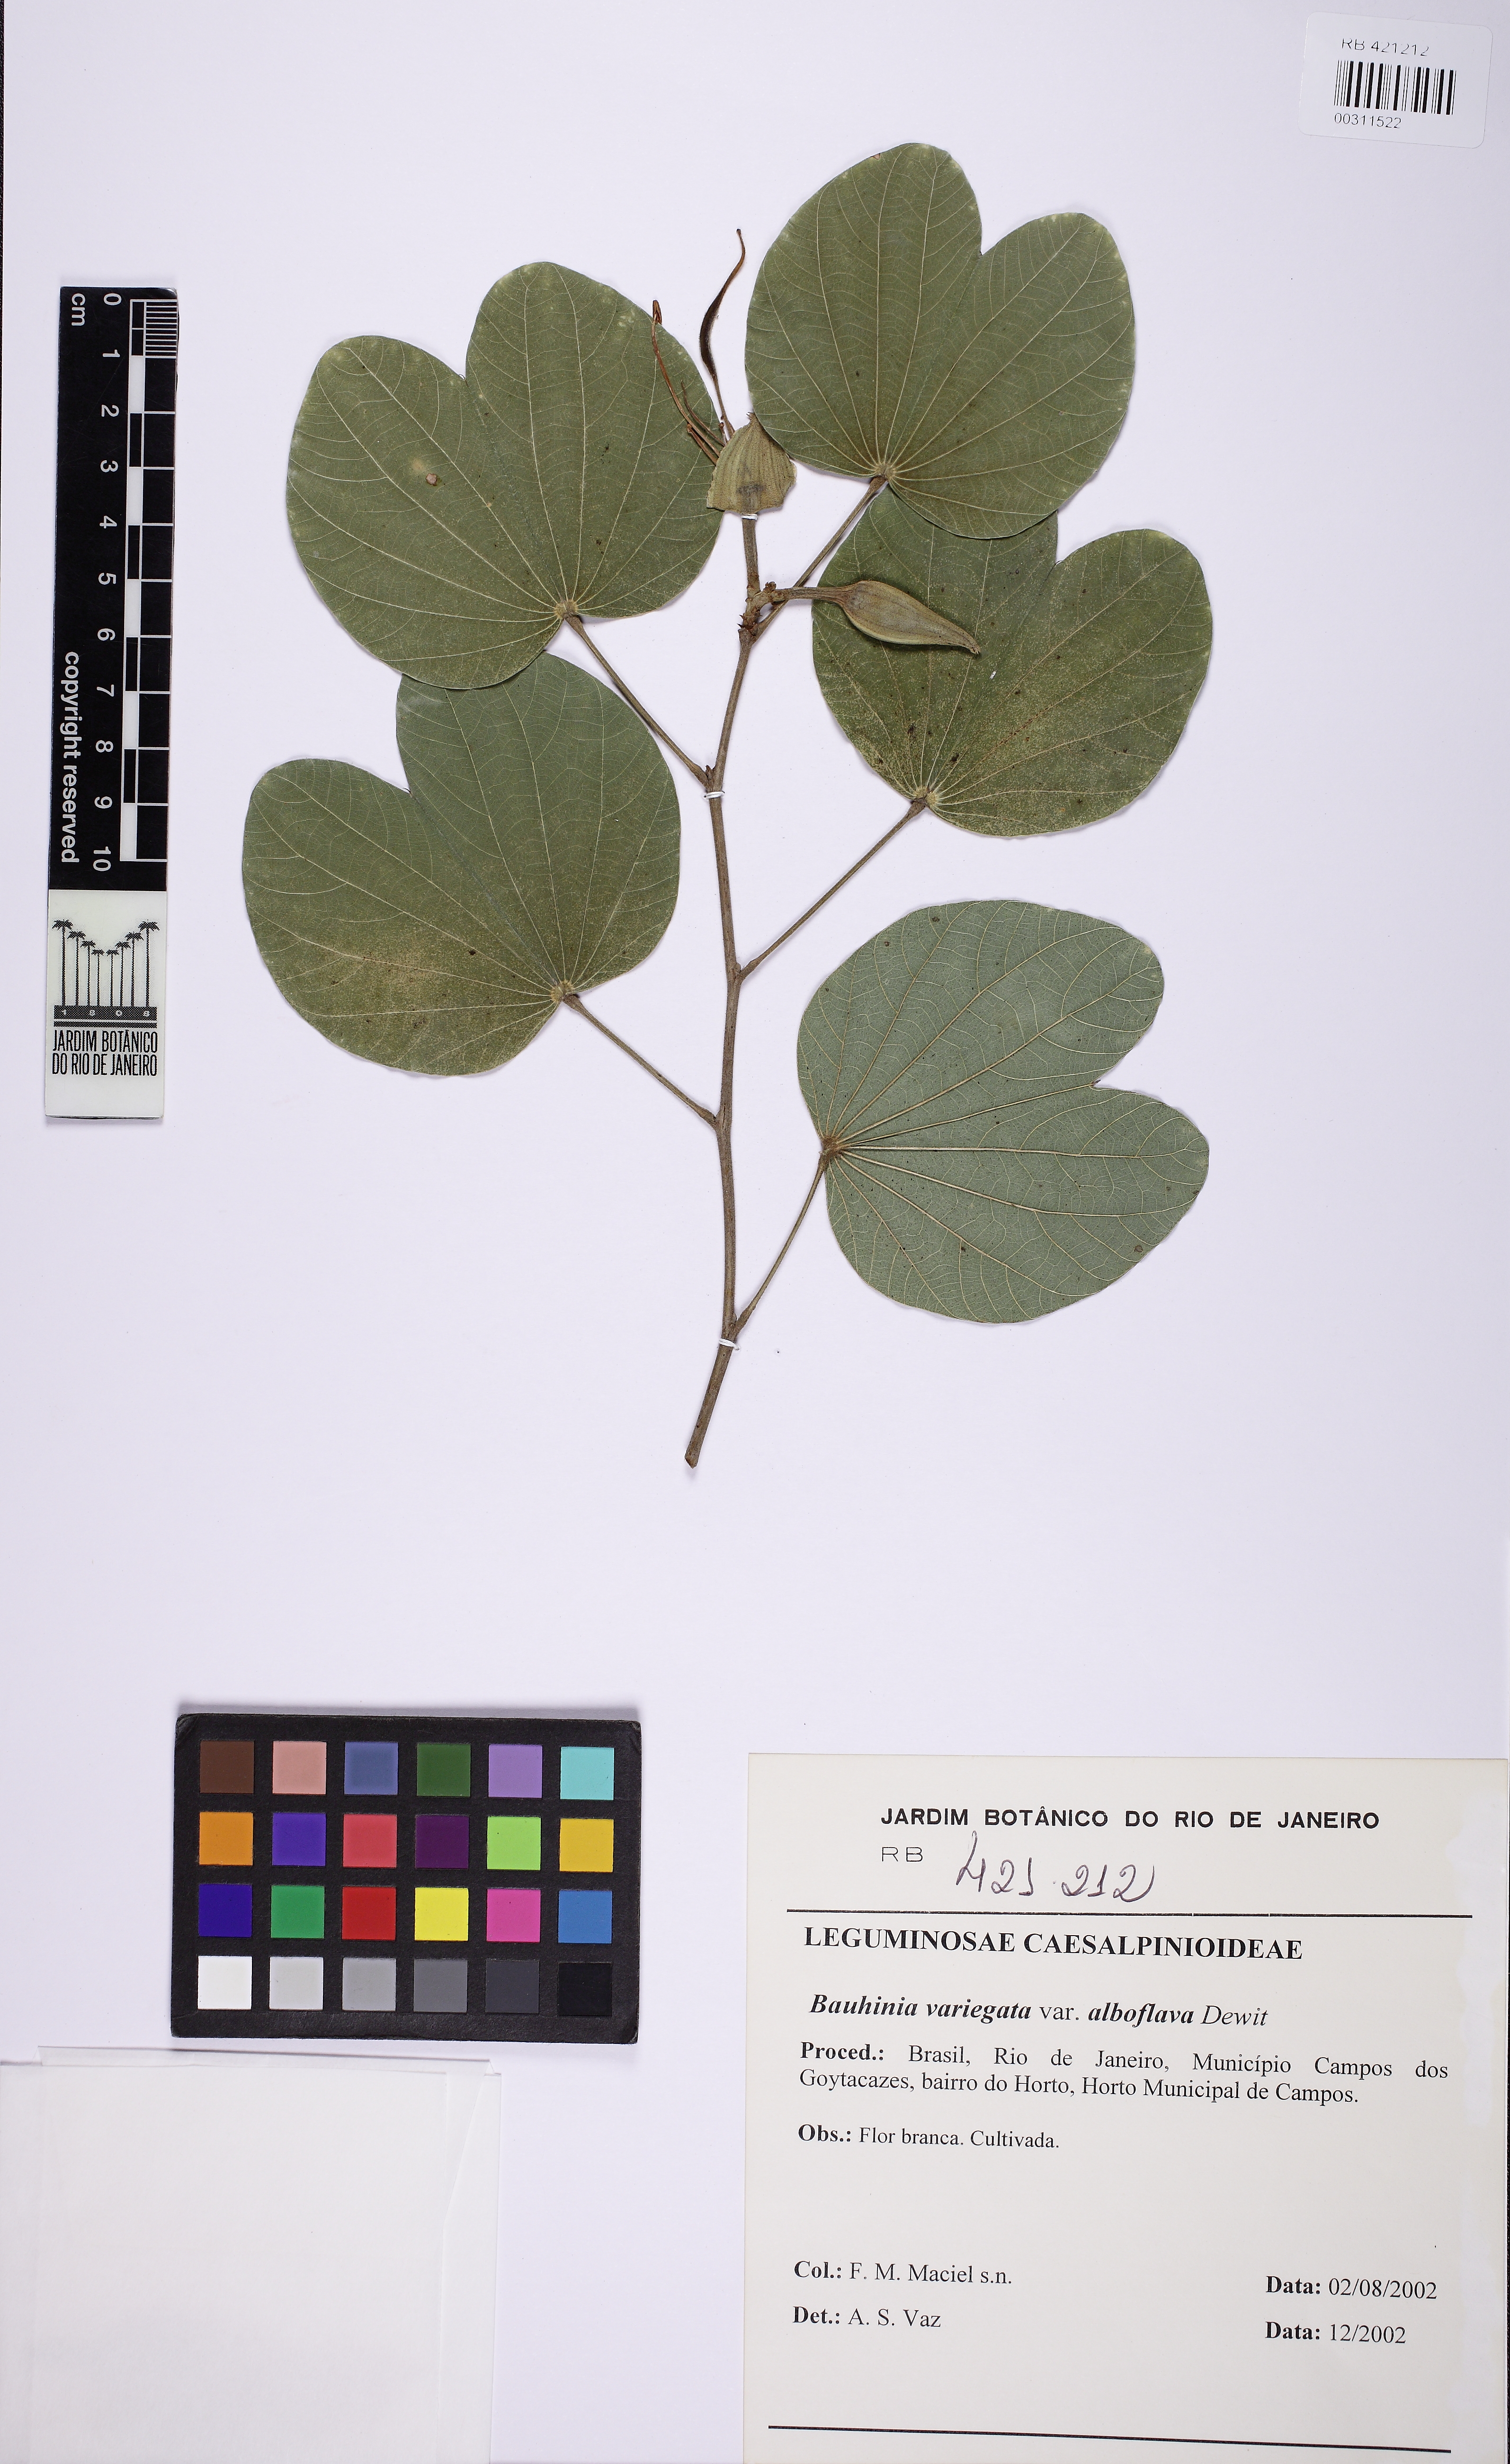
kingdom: Plantae
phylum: Tracheophyta
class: Magnoliopsida
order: Fabales
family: Fabaceae
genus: Bauhinia
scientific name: Bauhinia variegata
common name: Mountain ebony
